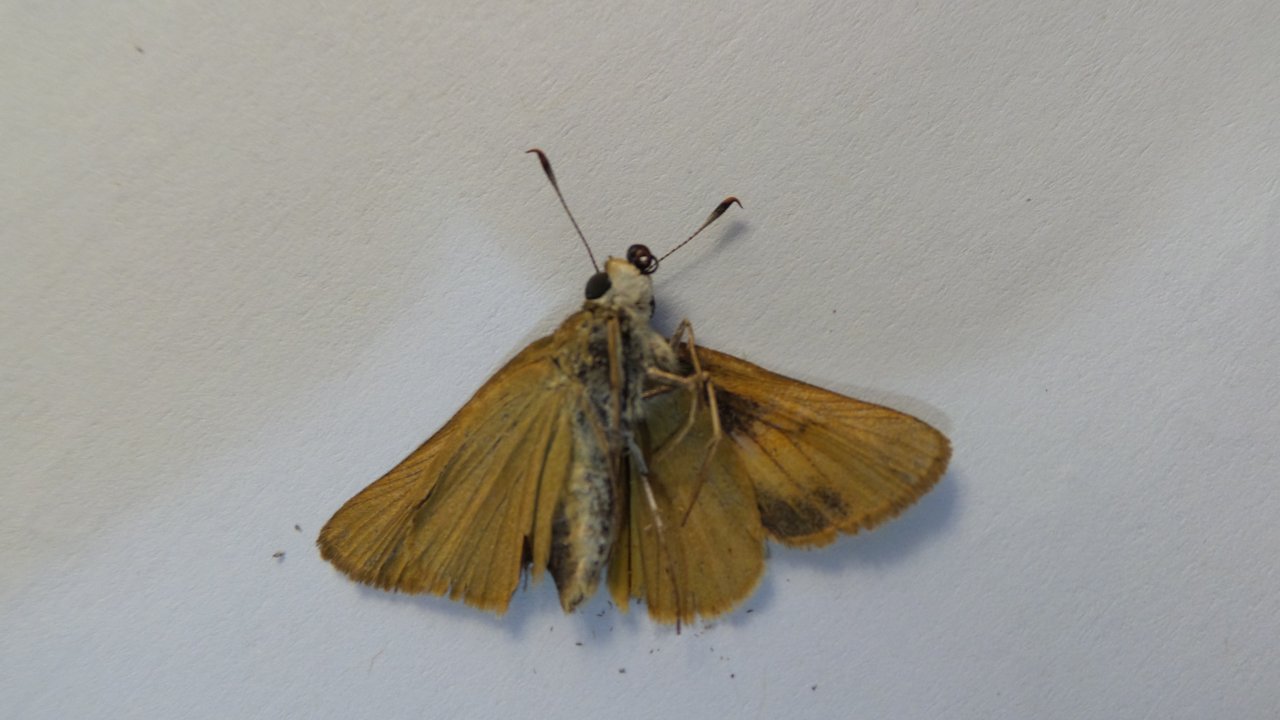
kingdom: Animalia
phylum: Arthropoda
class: Insecta
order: Lepidoptera
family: Hesperiidae
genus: Atrytone
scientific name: Atrytone delaware
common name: Delaware Skipper
